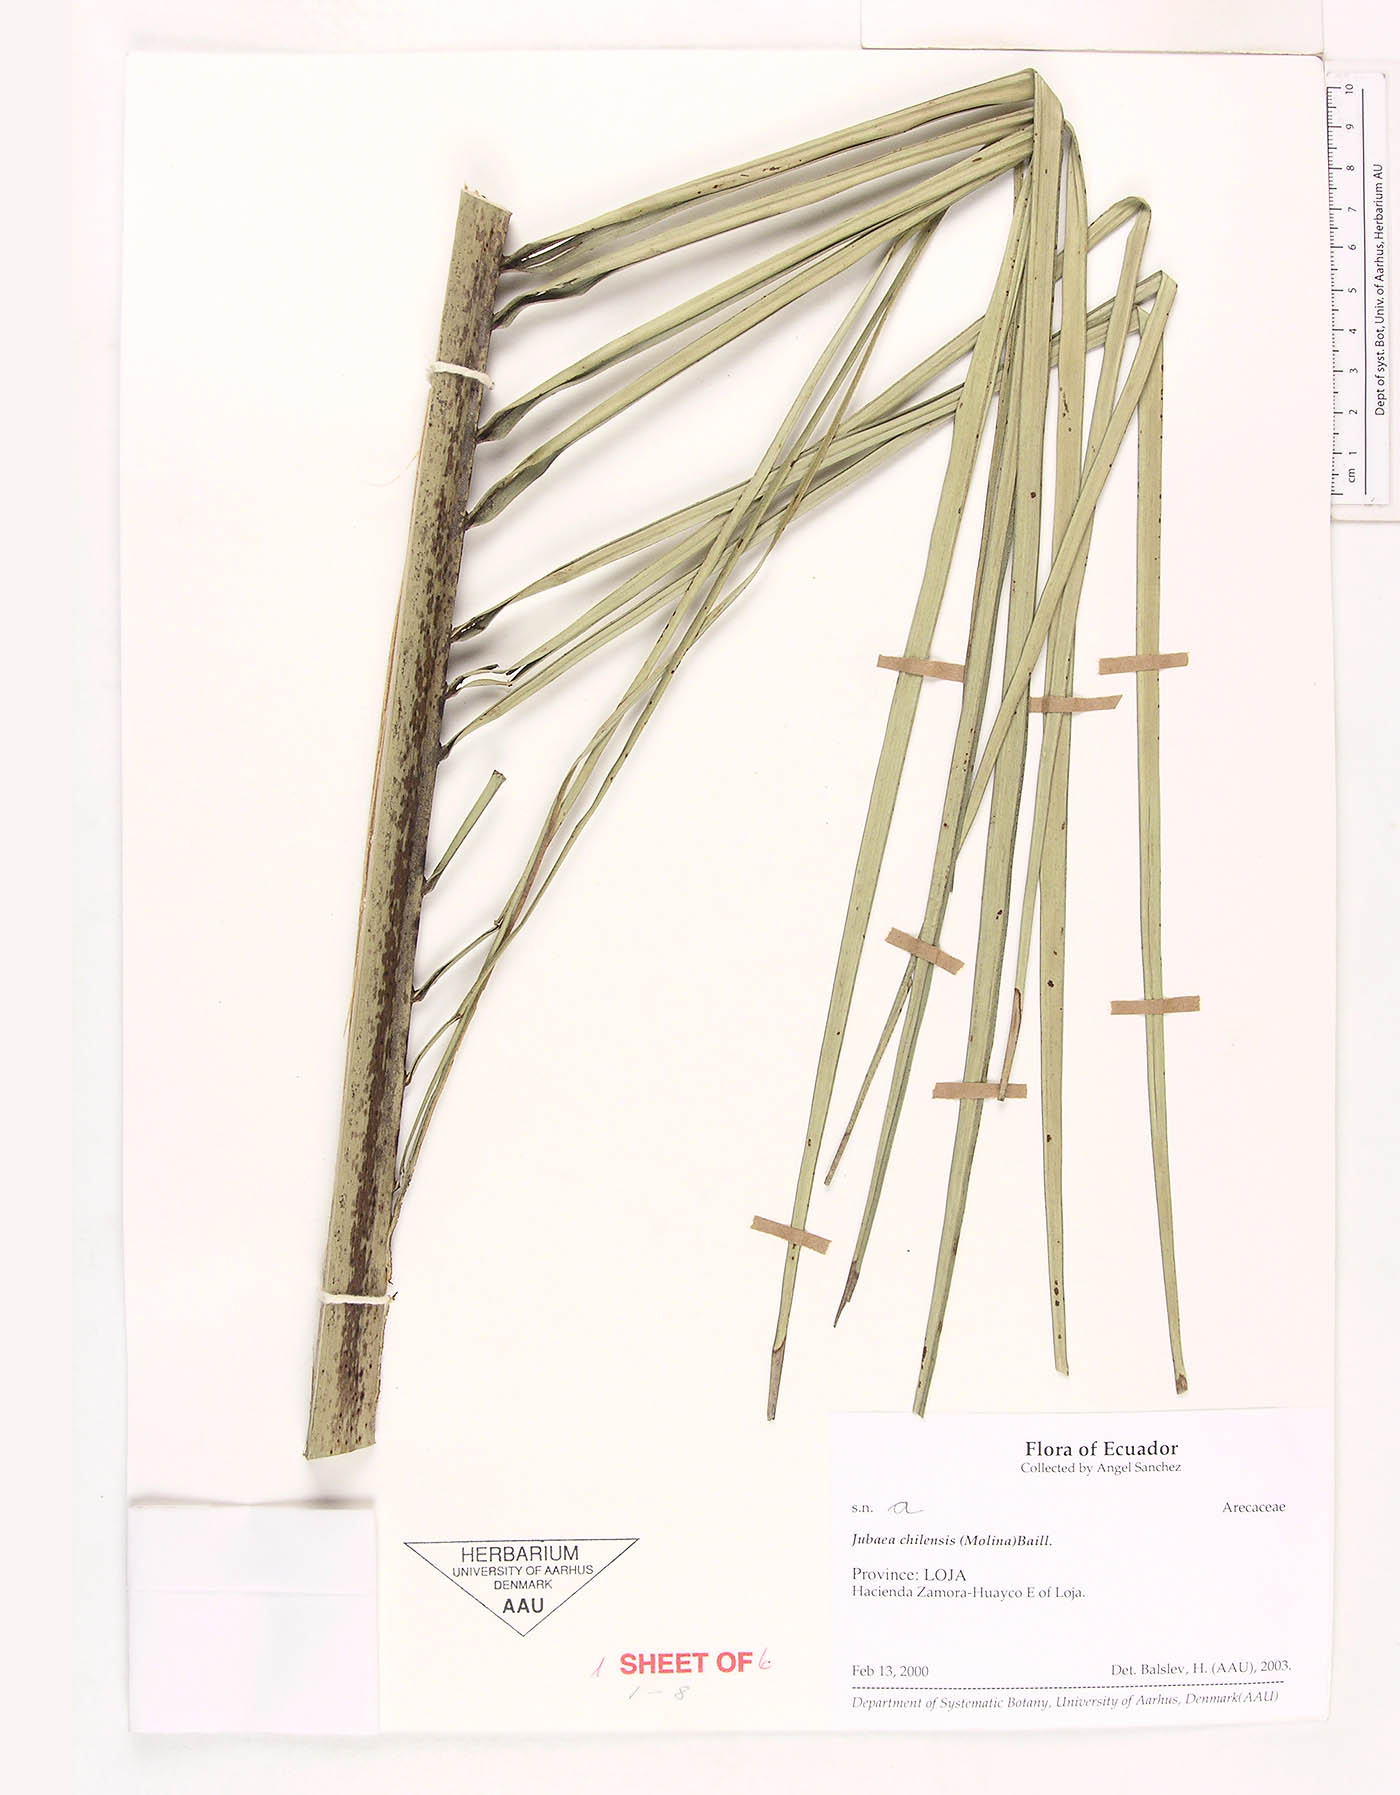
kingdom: Plantae
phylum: Tracheophyta
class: Liliopsida
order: Arecales
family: Arecaceae
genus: Jubaea
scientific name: Jubaea chilensis
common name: Coquito palm
